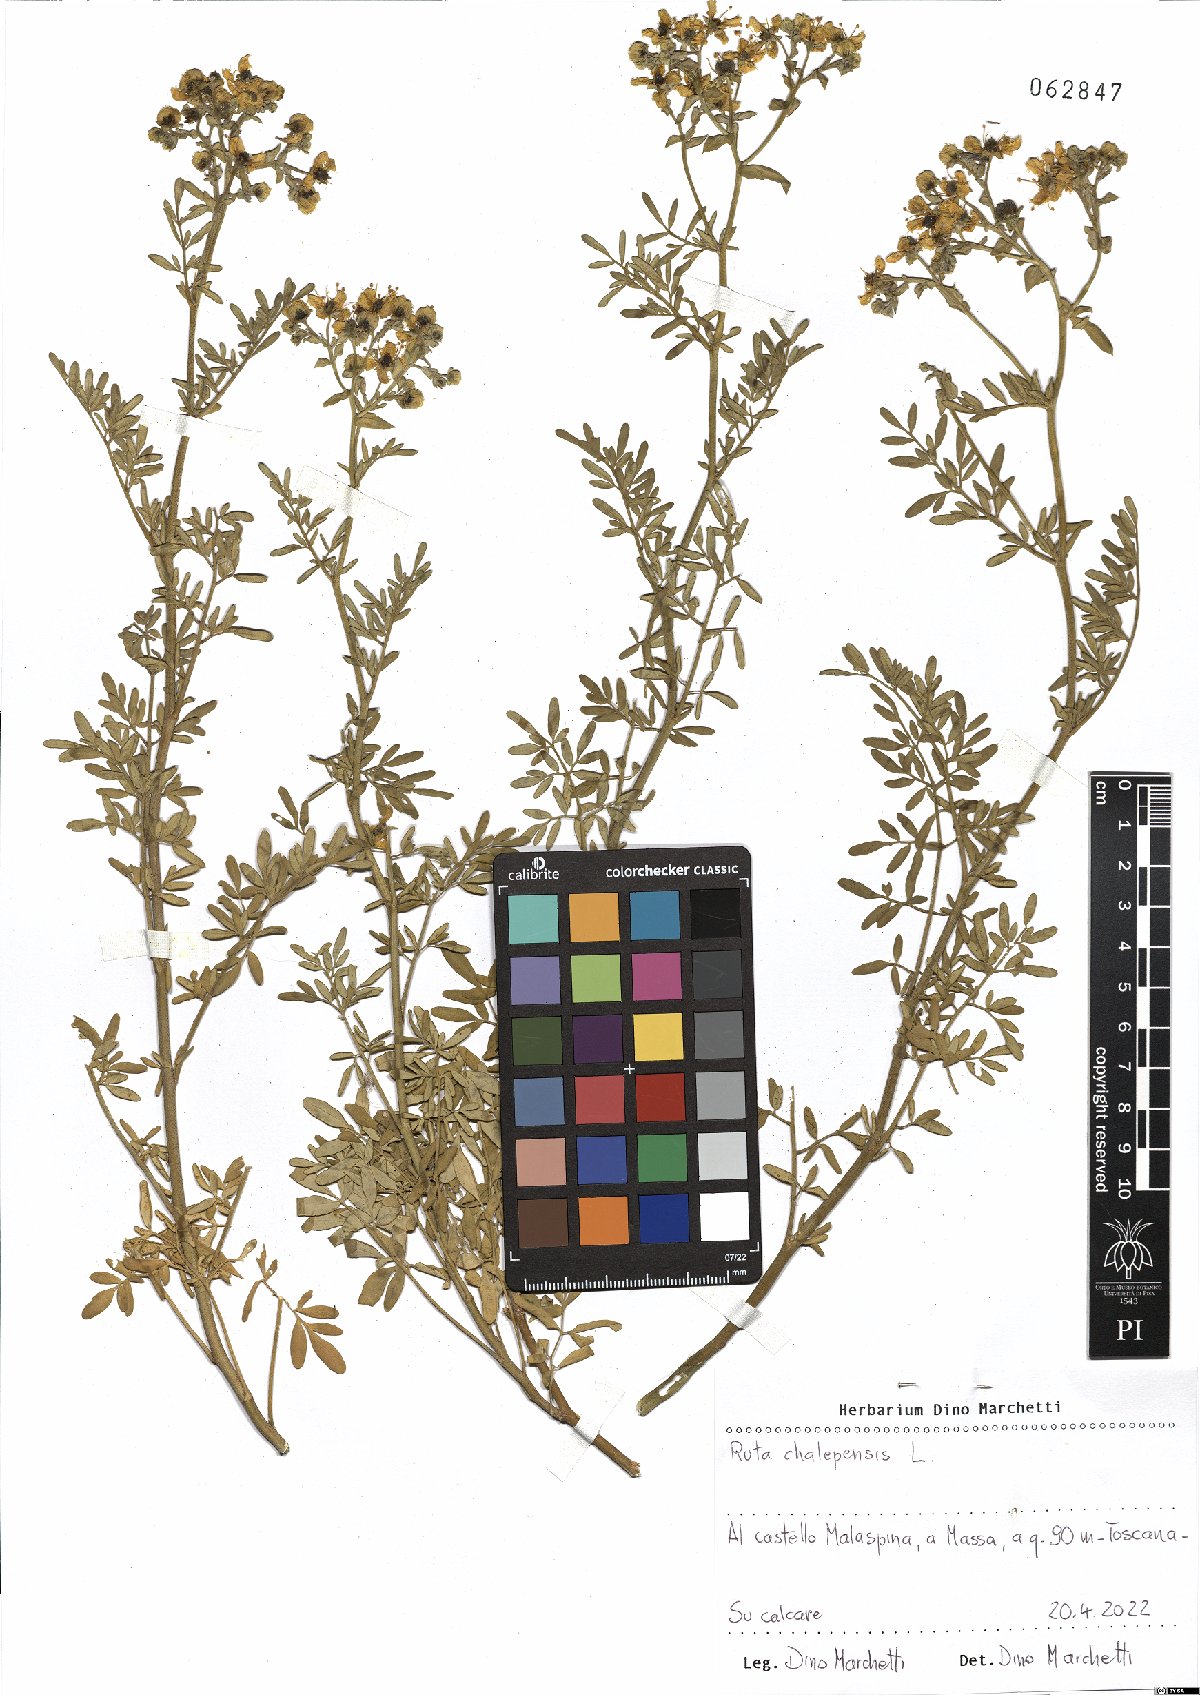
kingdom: Plantae
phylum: Tracheophyta
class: Magnoliopsida
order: Sapindales
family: Rutaceae
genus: Ruta
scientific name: Ruta chalepensis
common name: Fringed rue
